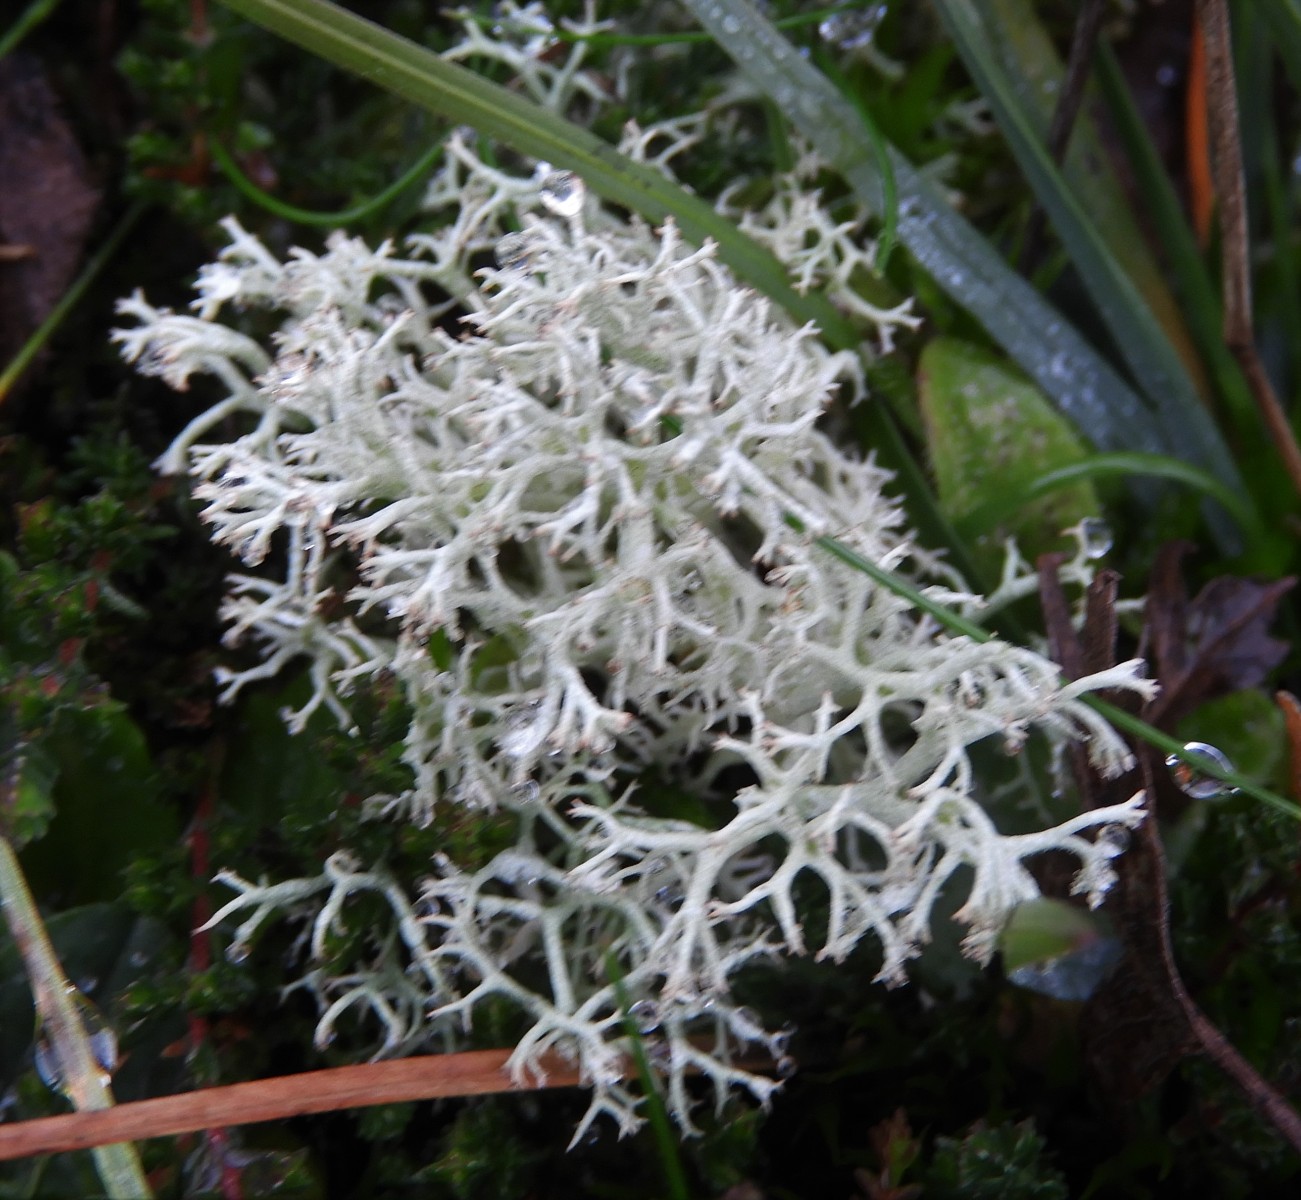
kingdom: Fungi
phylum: Ascomycota
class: Lecanoromycetes
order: Lecanorales
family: Cladoniaceae
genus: Cladonia
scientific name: Cladonia portentosa
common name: hede-rensdyrlav
